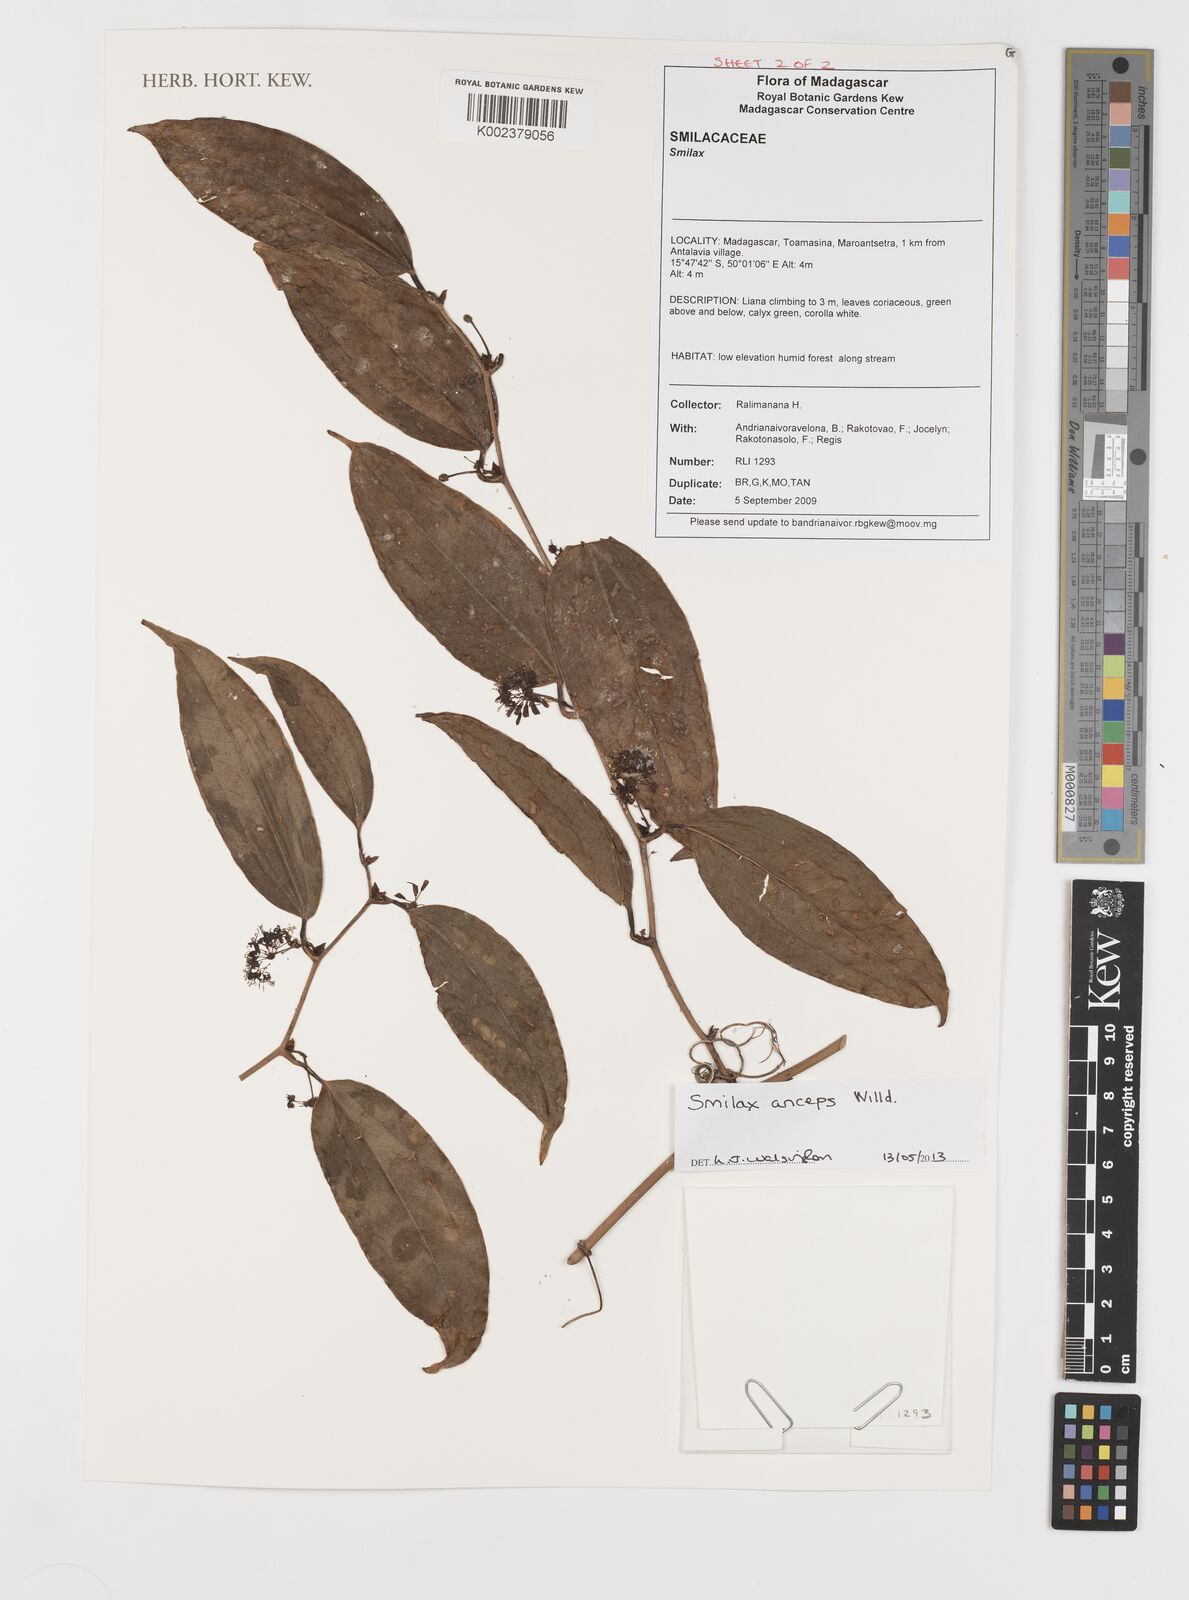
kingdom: Plantae
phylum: Tracheophyta
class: Liliopsida
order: Liliales
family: Smilacaceae
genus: Smilax
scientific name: Smilax anceps
